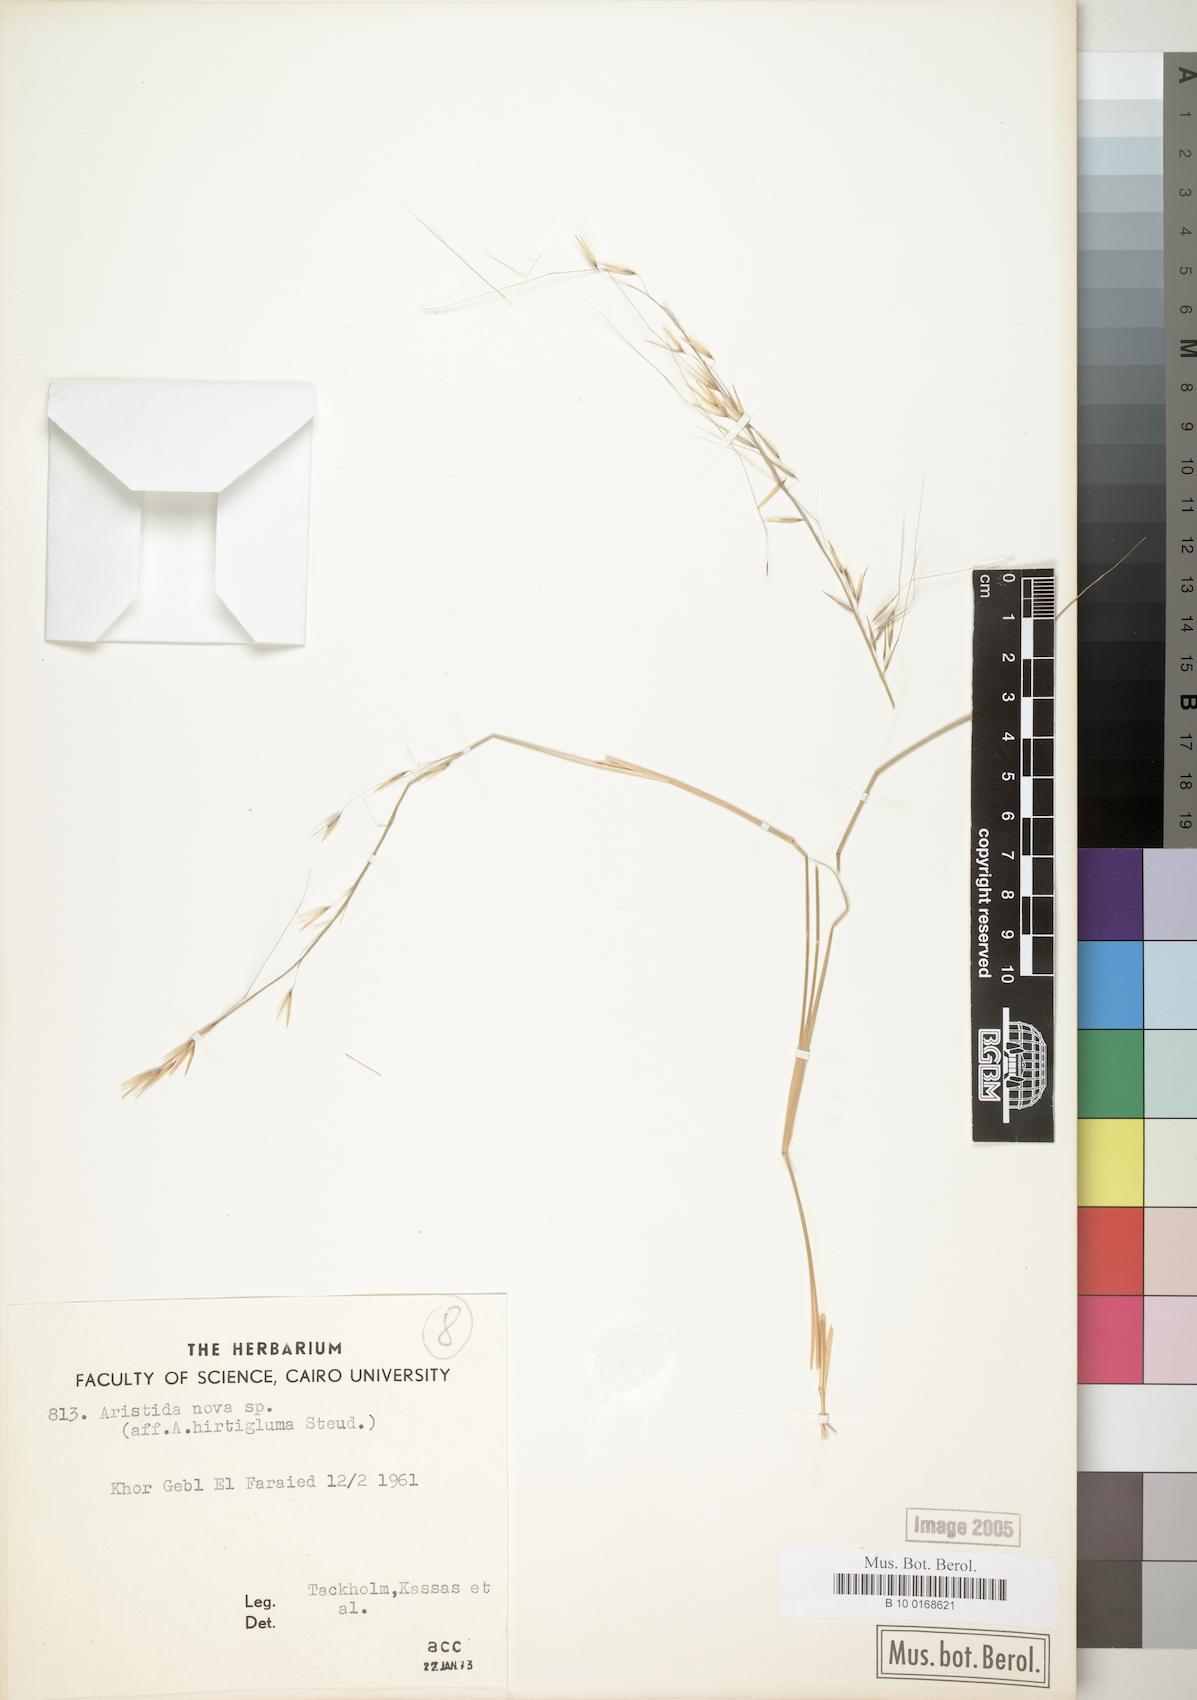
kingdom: Plantae
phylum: Tracheophyta
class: Liliopsida
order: Poales
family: Poaceae
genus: Stipagrostis
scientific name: Stipagrostis hirtigluma
